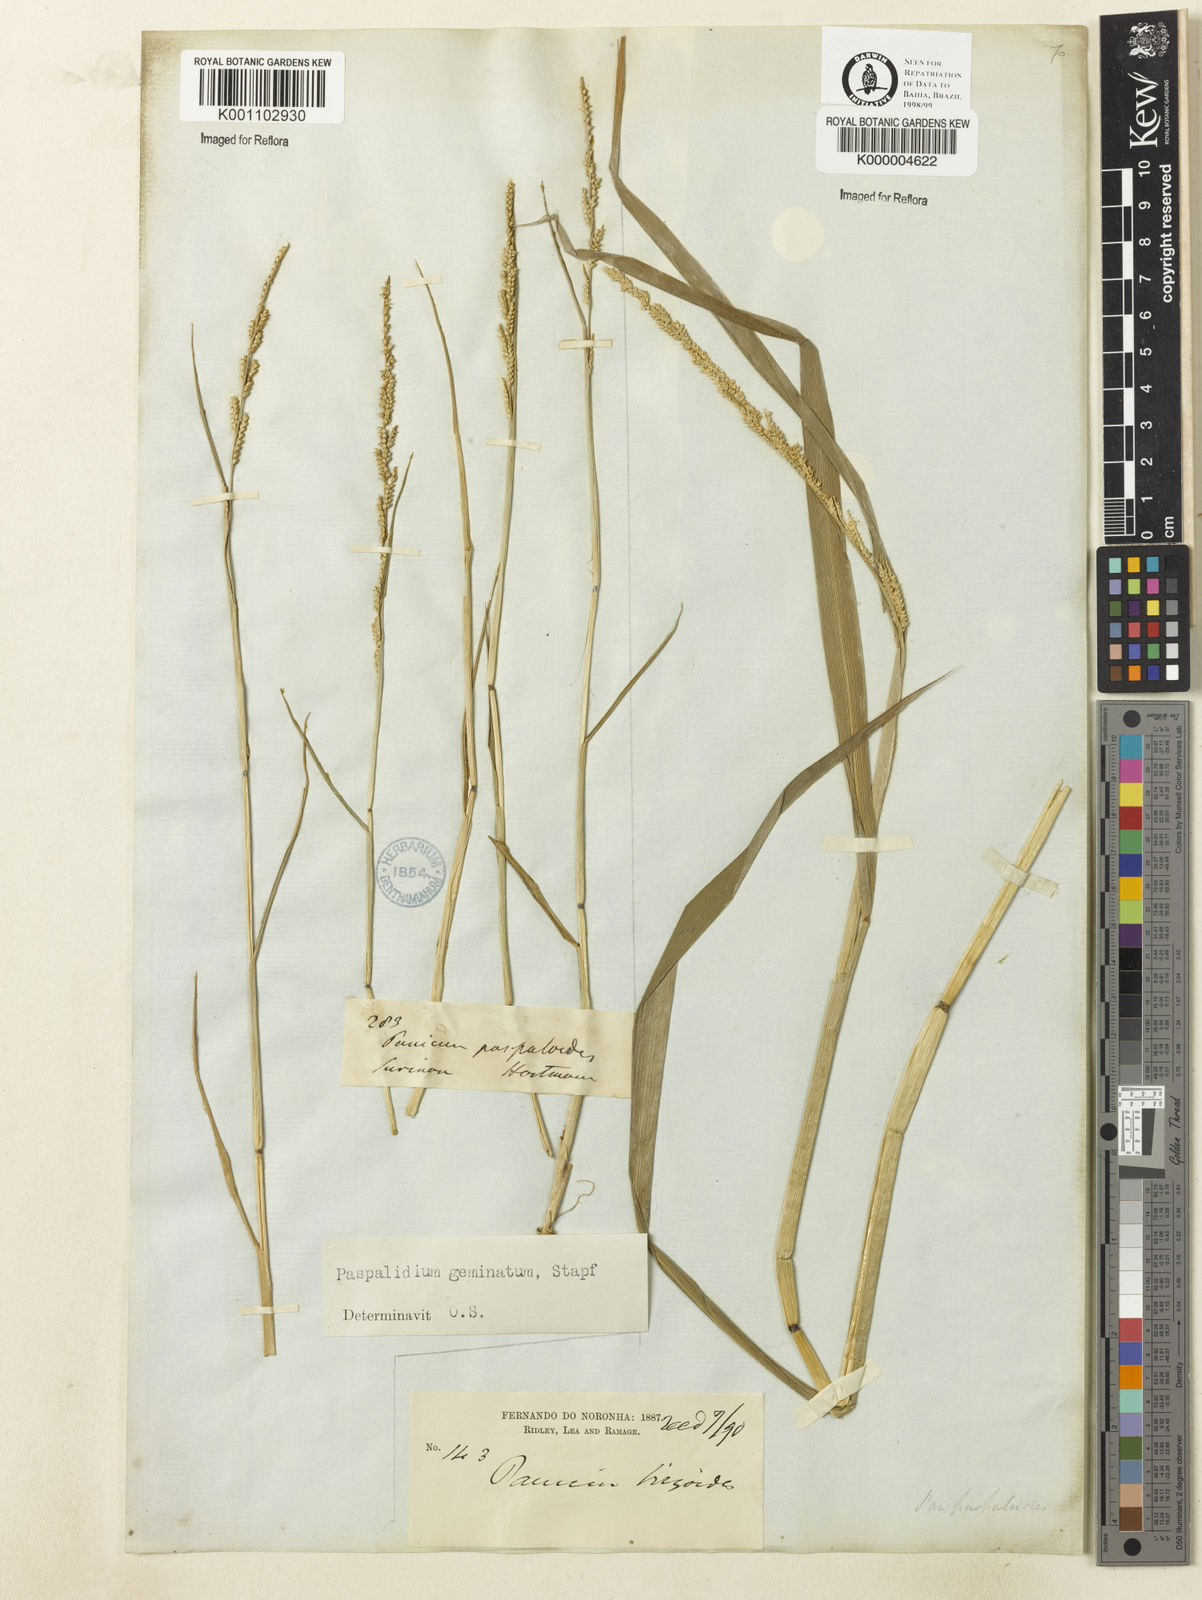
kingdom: Plantae
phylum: Tracheophyta
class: Liliopsida
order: Poales
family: Poaceae
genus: Setaria
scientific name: Setaria geminata
